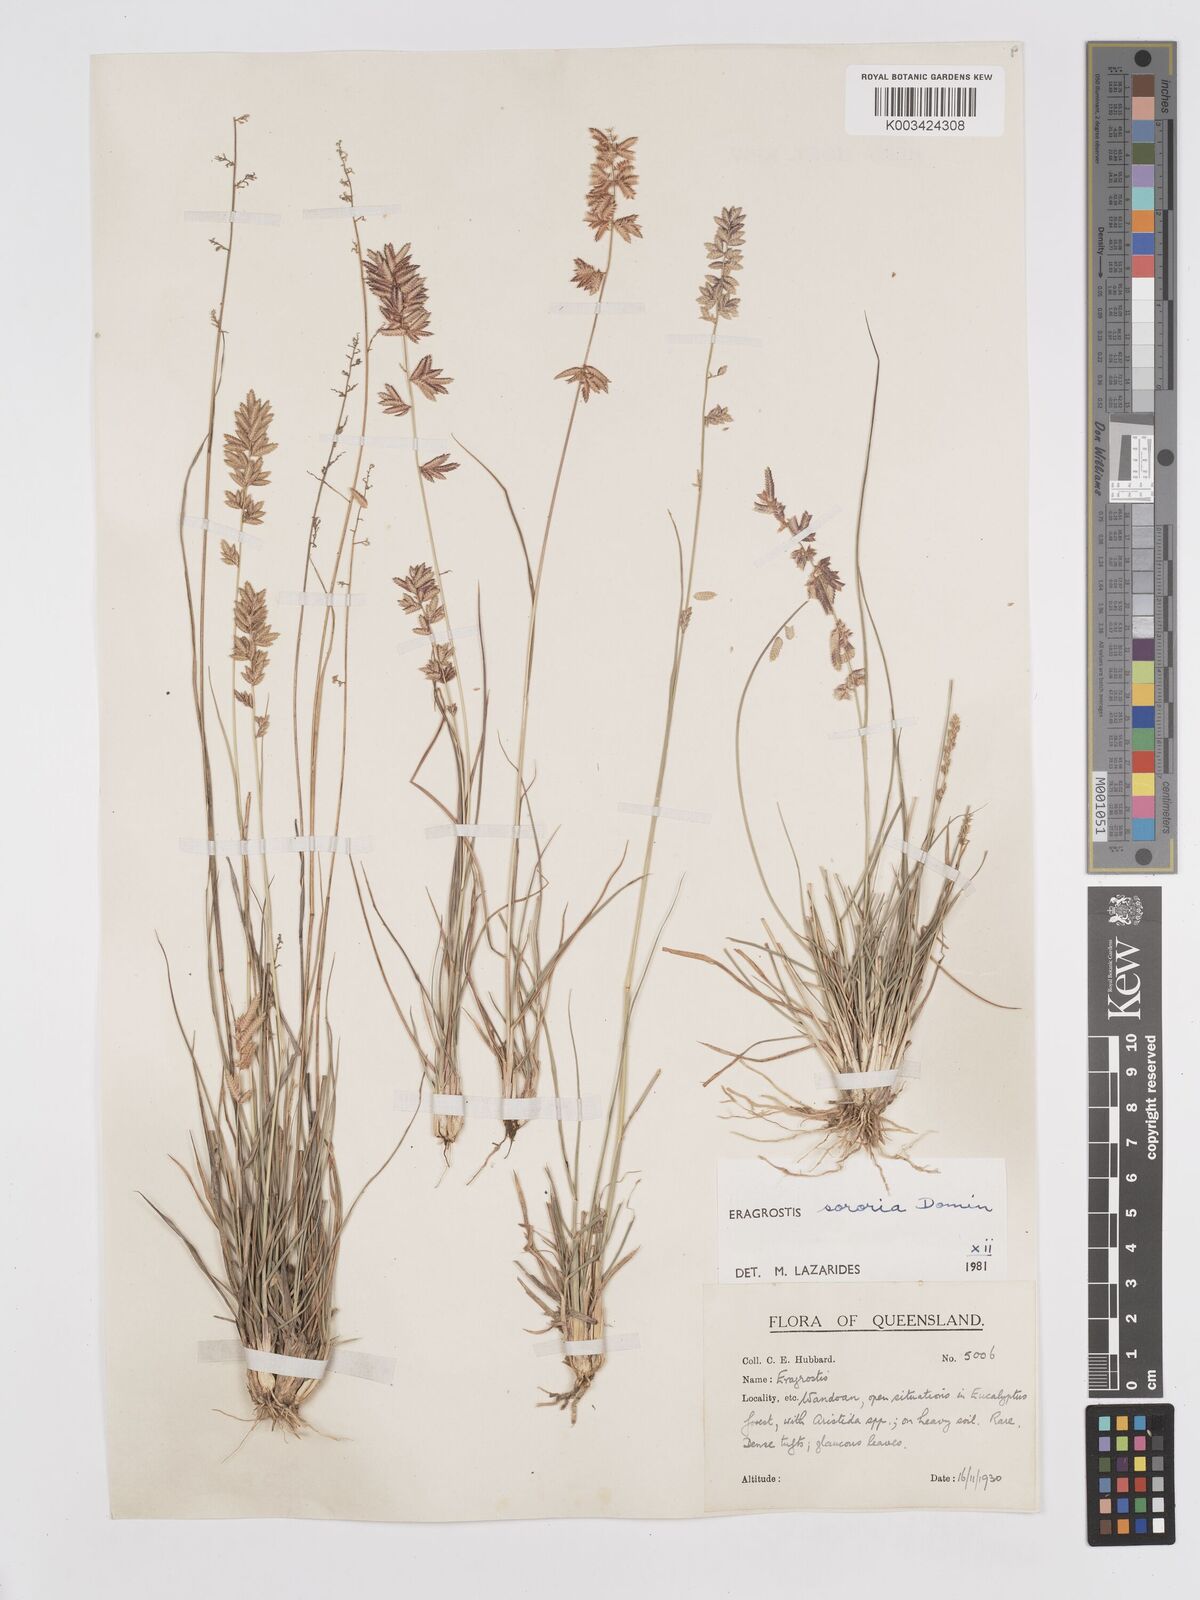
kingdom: Plantae
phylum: Tracheophyta
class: Liliopsida
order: Poales
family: Poaceae
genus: Eragrostis
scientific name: Eragrostis sororia
